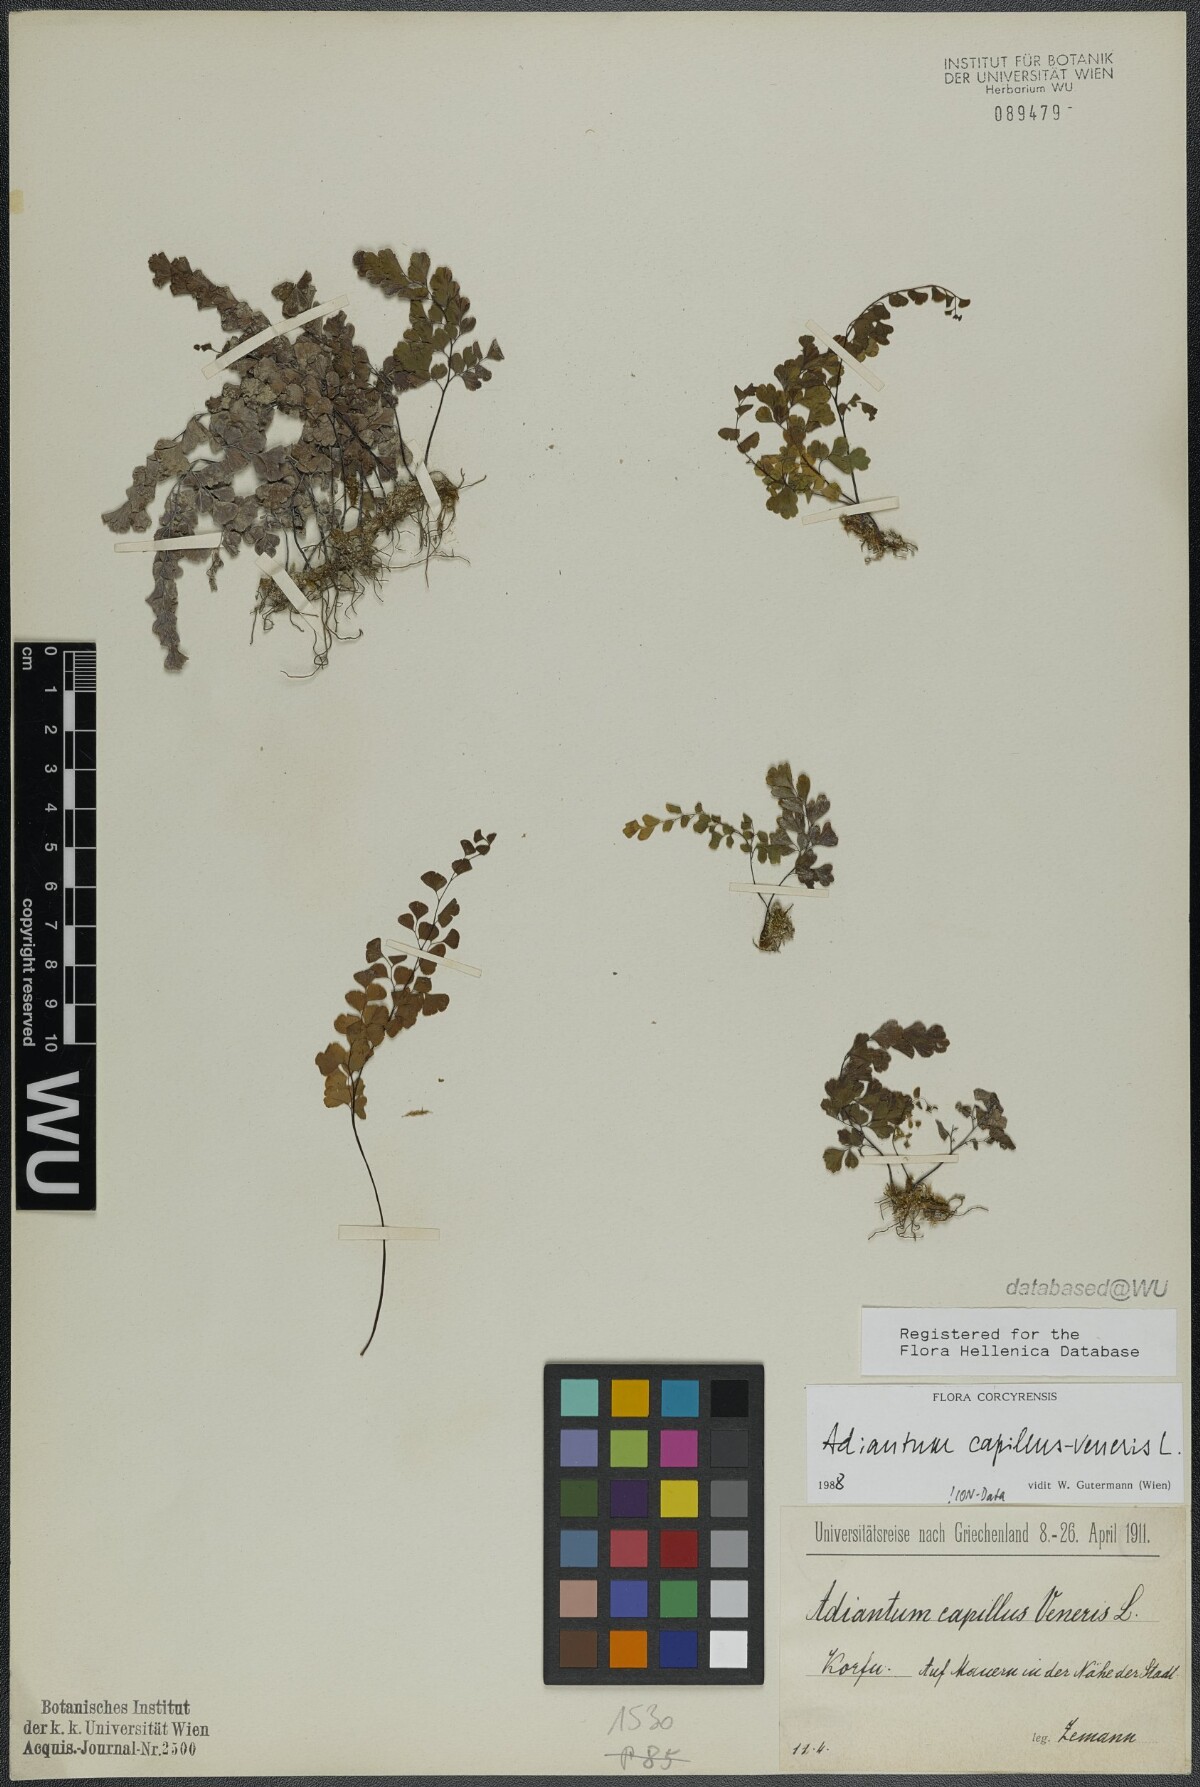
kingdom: Plantae
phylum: Tracheophyta
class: Polypodiopsida
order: Polypodiales
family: Pteridaceae
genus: Adiantum
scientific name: Adiantum capillus-veneris
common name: Maidenhair fern
